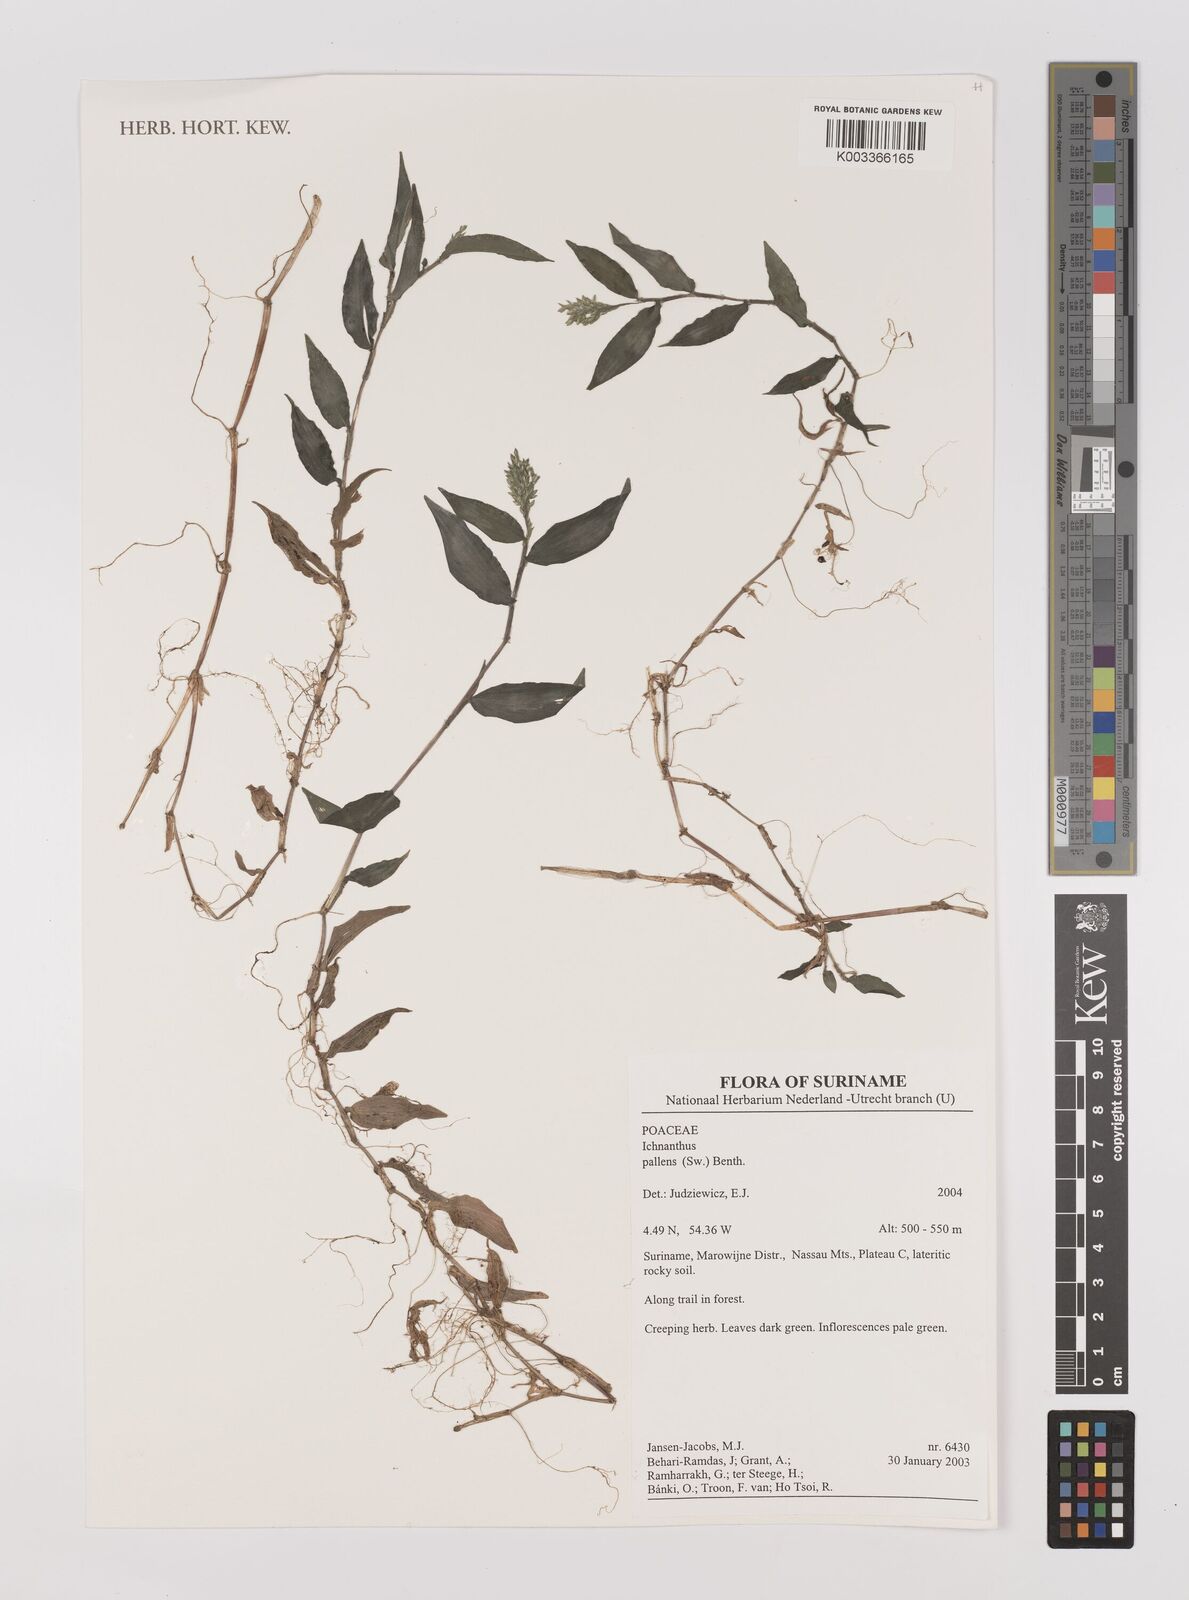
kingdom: Plantae
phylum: Tracheophyta
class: Liliopsida
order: Poales
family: Poaceae
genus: Ichnanthus
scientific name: Ichnanthus pallens
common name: Water grass
